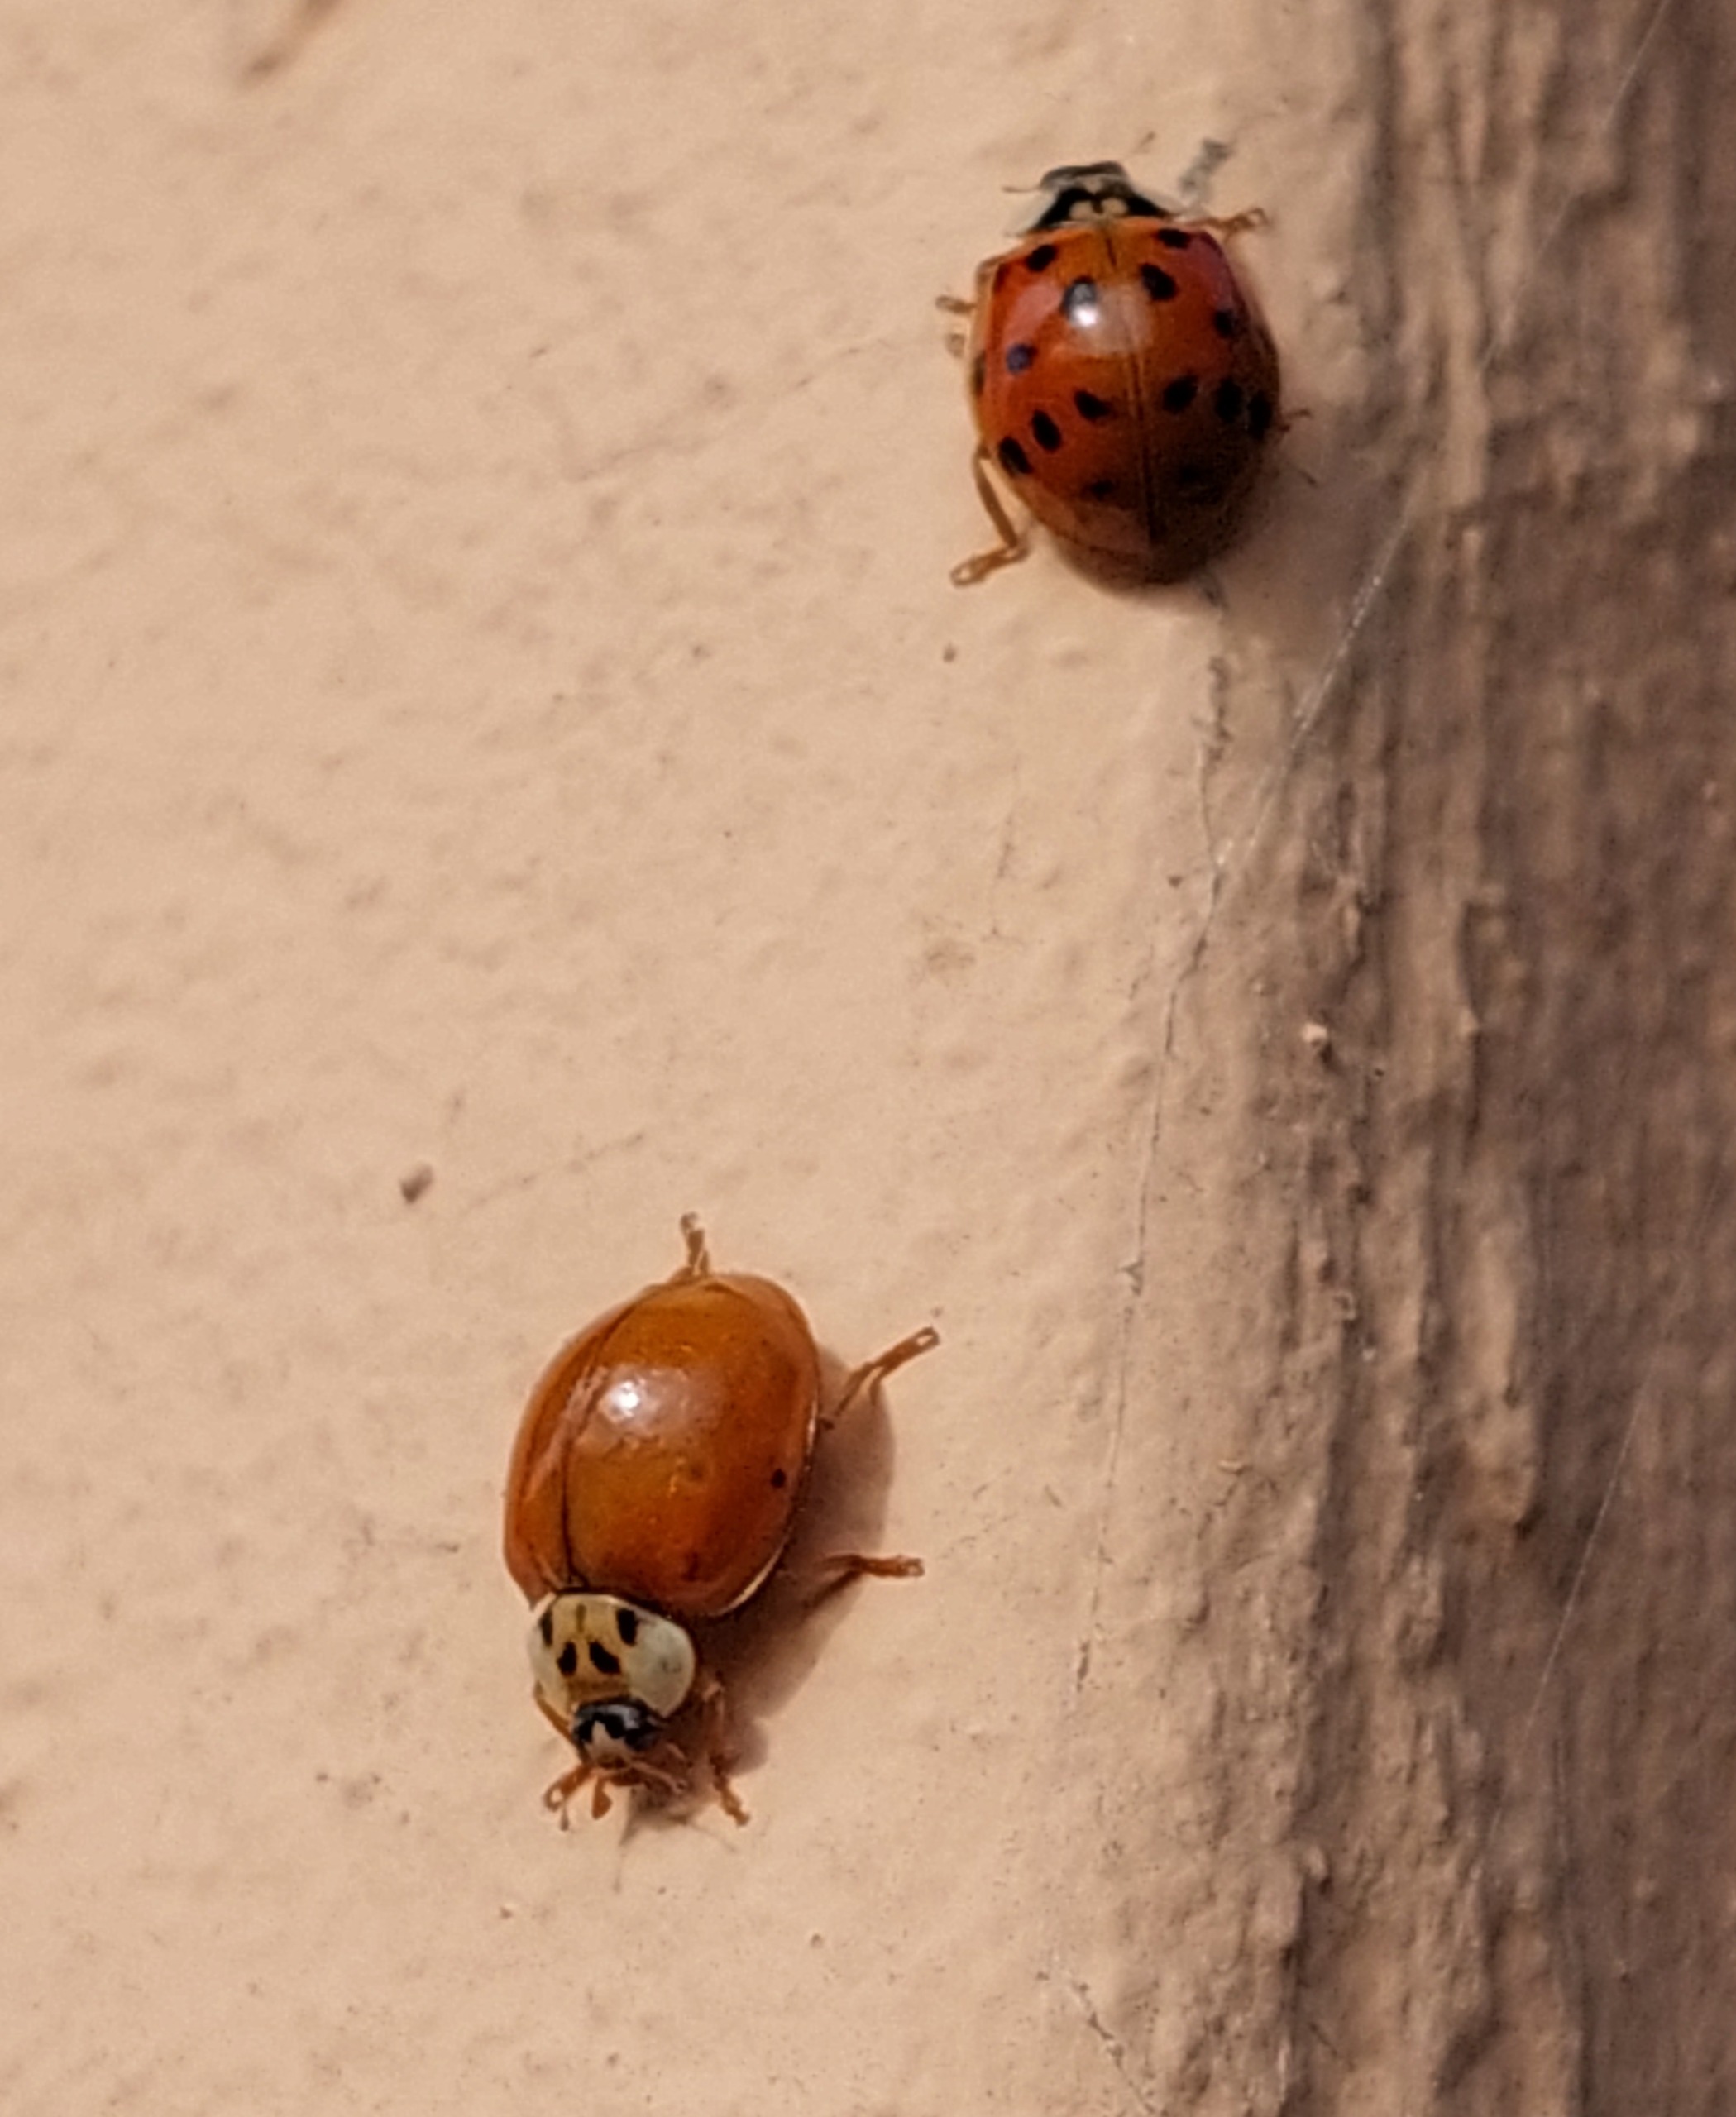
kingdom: Animalia
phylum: Arthropoda
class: Insecta
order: Coleoptera
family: Coccinellidae
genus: Harmonia
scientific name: Harmonia axyridis
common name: Harlekinmariehøne
